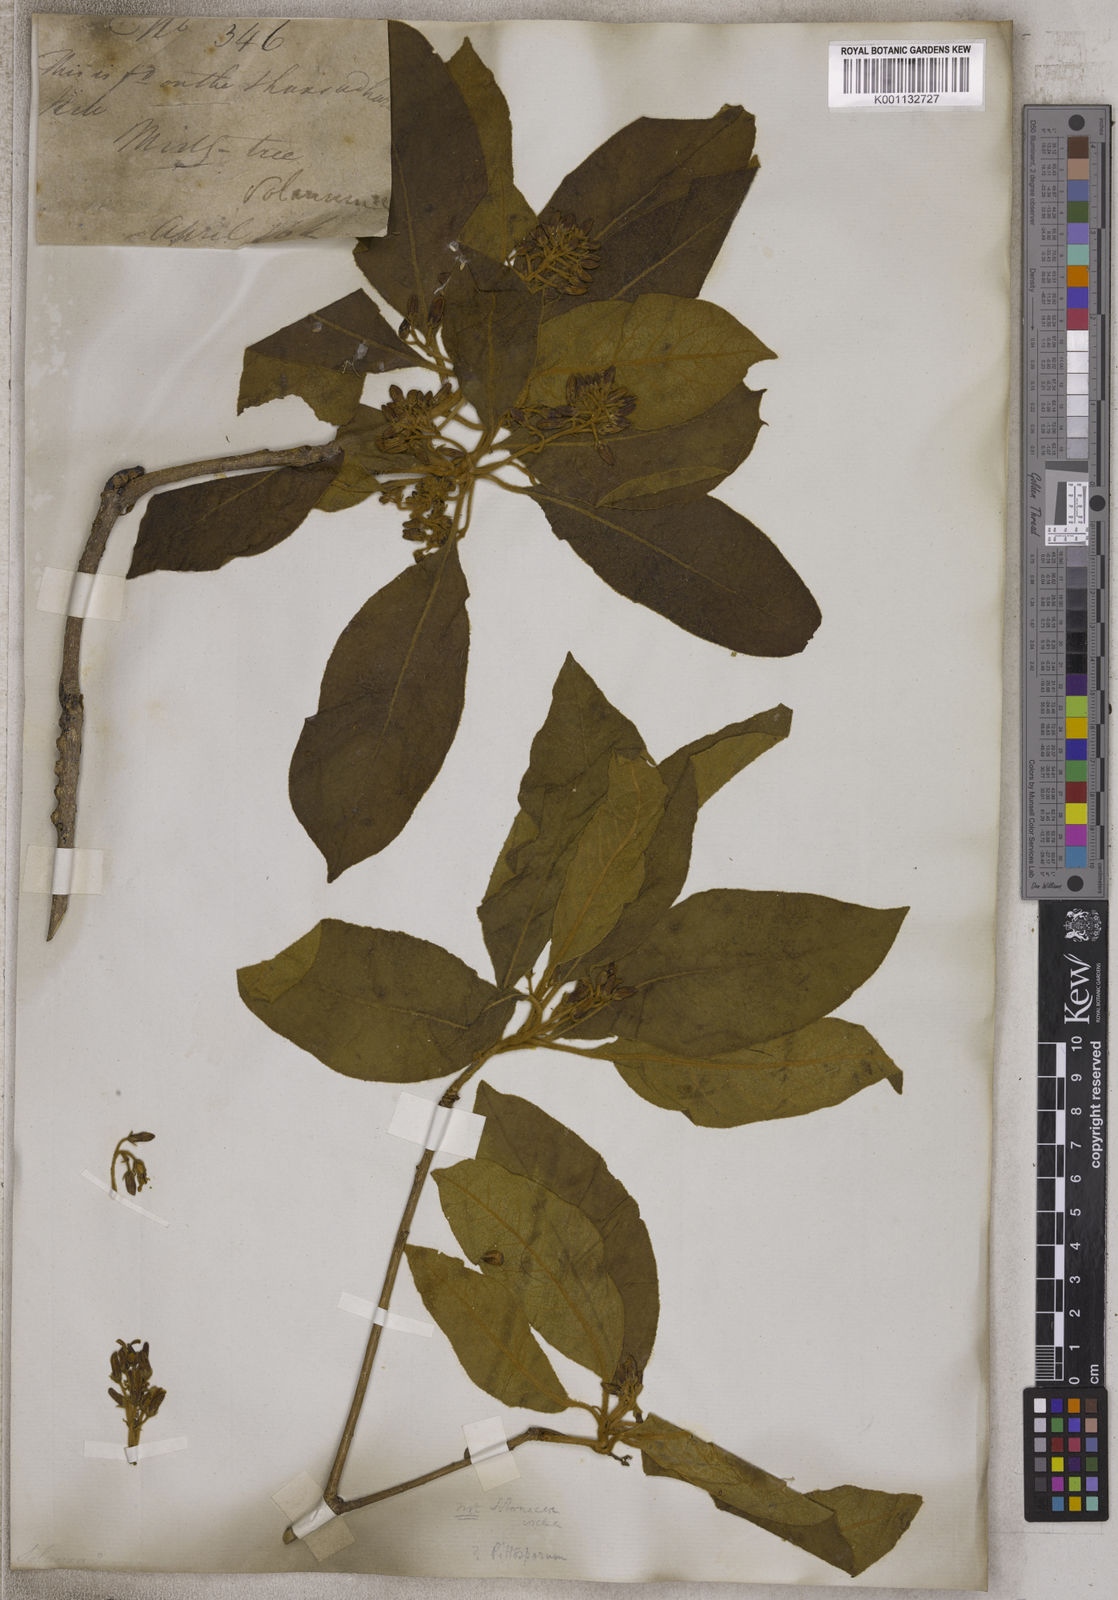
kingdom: Plantae
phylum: Tracheophyta
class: Magnoliopsida
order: Solanales
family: Solanaceae
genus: Solanum
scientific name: Solanum
